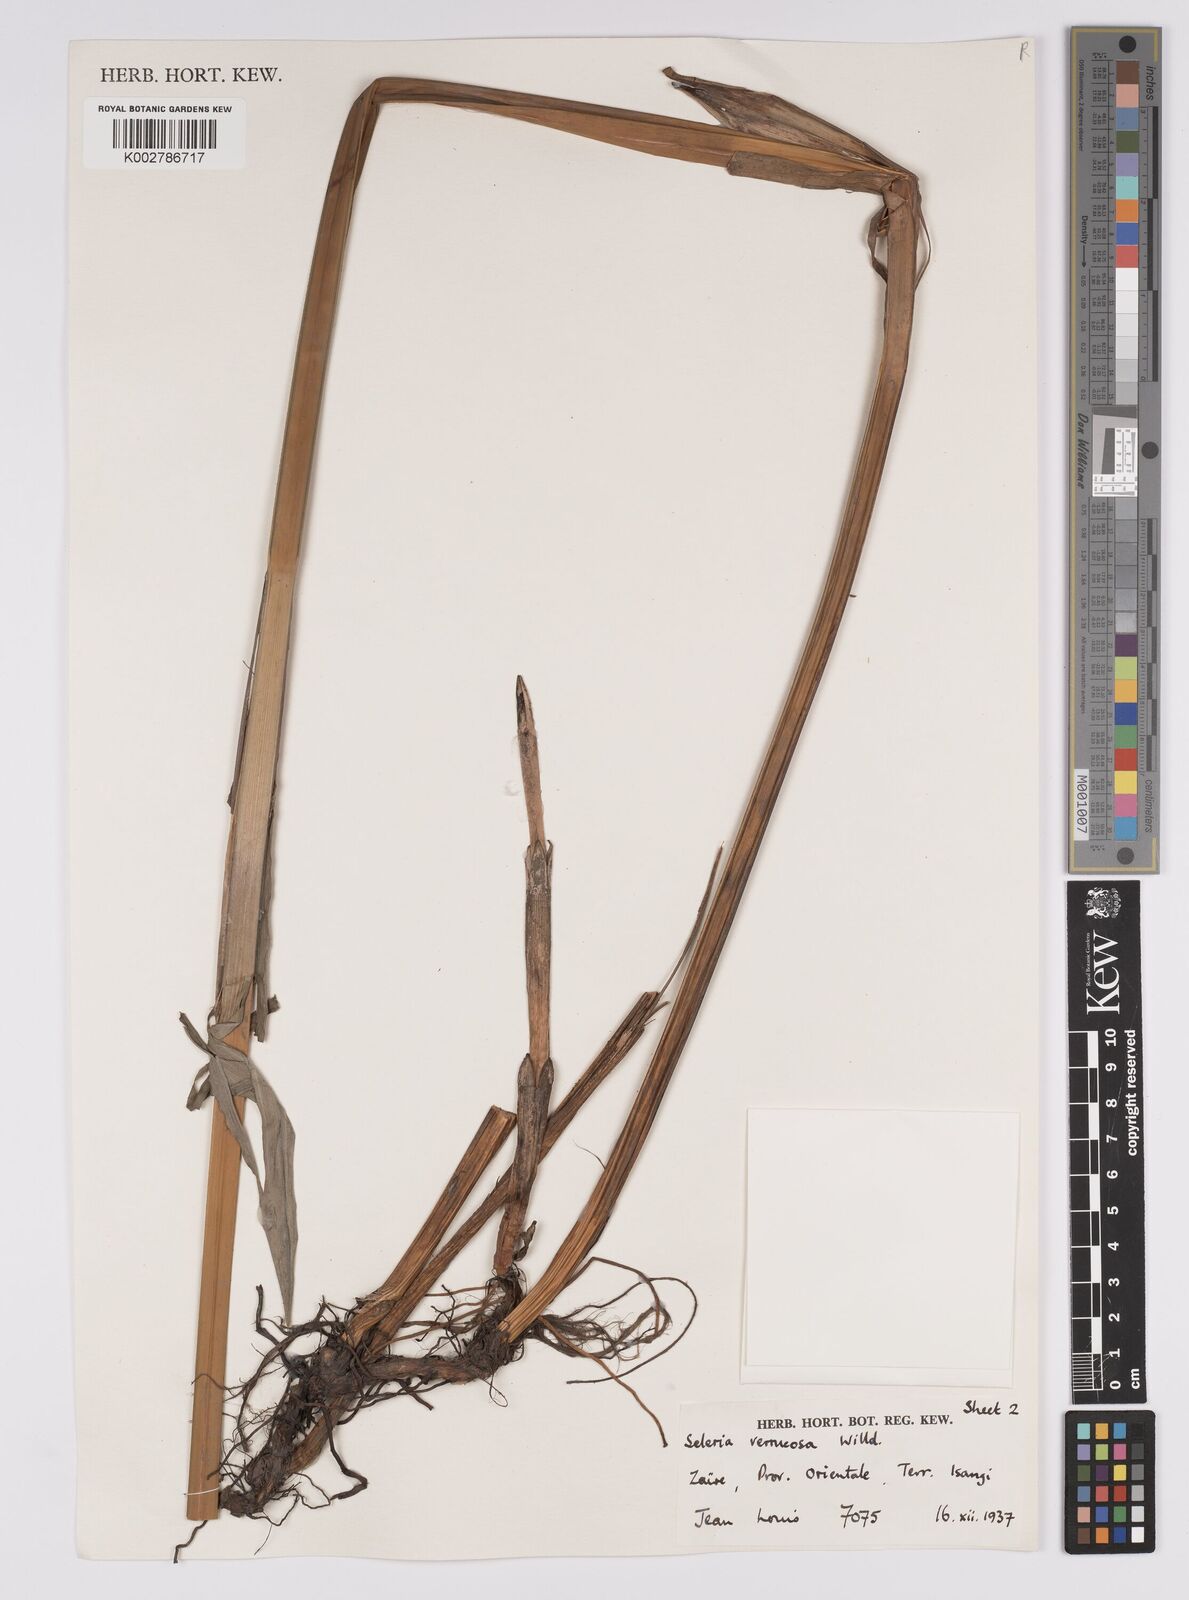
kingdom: Plantae
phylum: Tracheophyta
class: Liliopsida
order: Poales
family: Cyperaceae
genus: Scleria
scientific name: Scleria verrucosa
